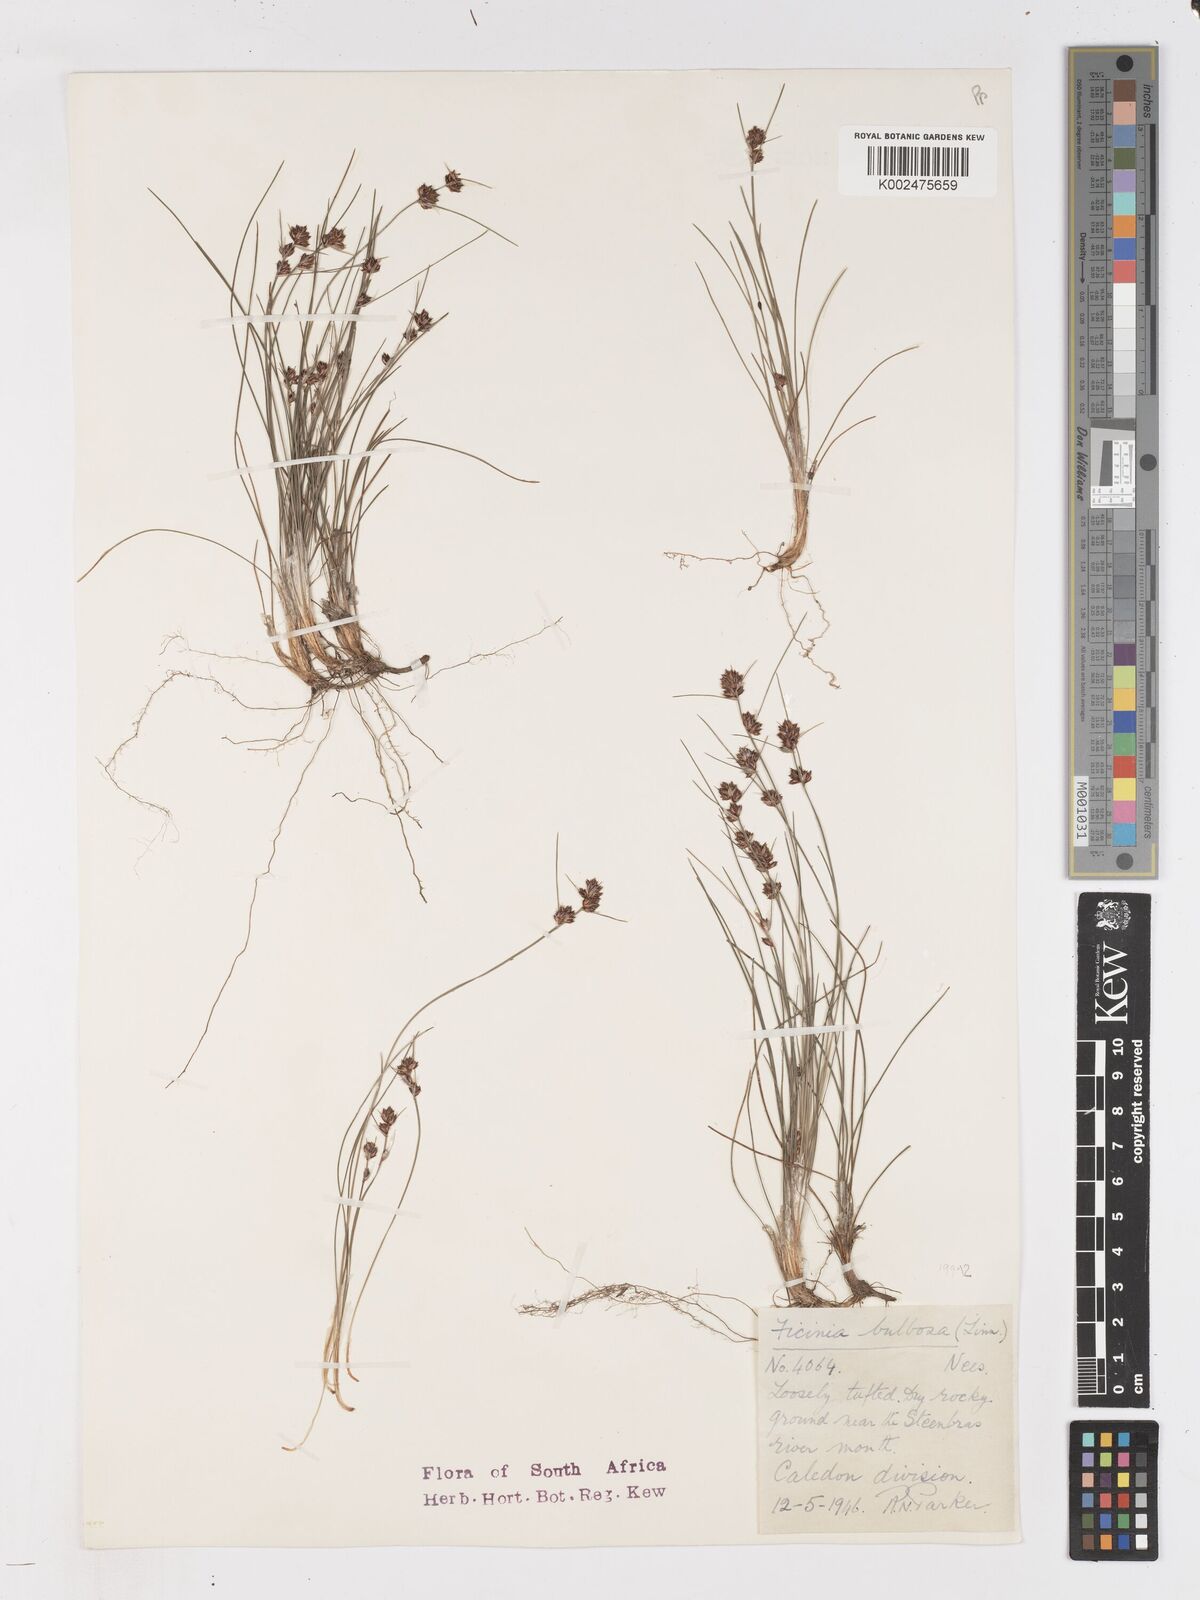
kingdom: Plantae
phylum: Tracheophyta
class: Liliopsida
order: Poales
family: Cyperaceae
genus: Ficinia
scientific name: Ficinia bulbosa
